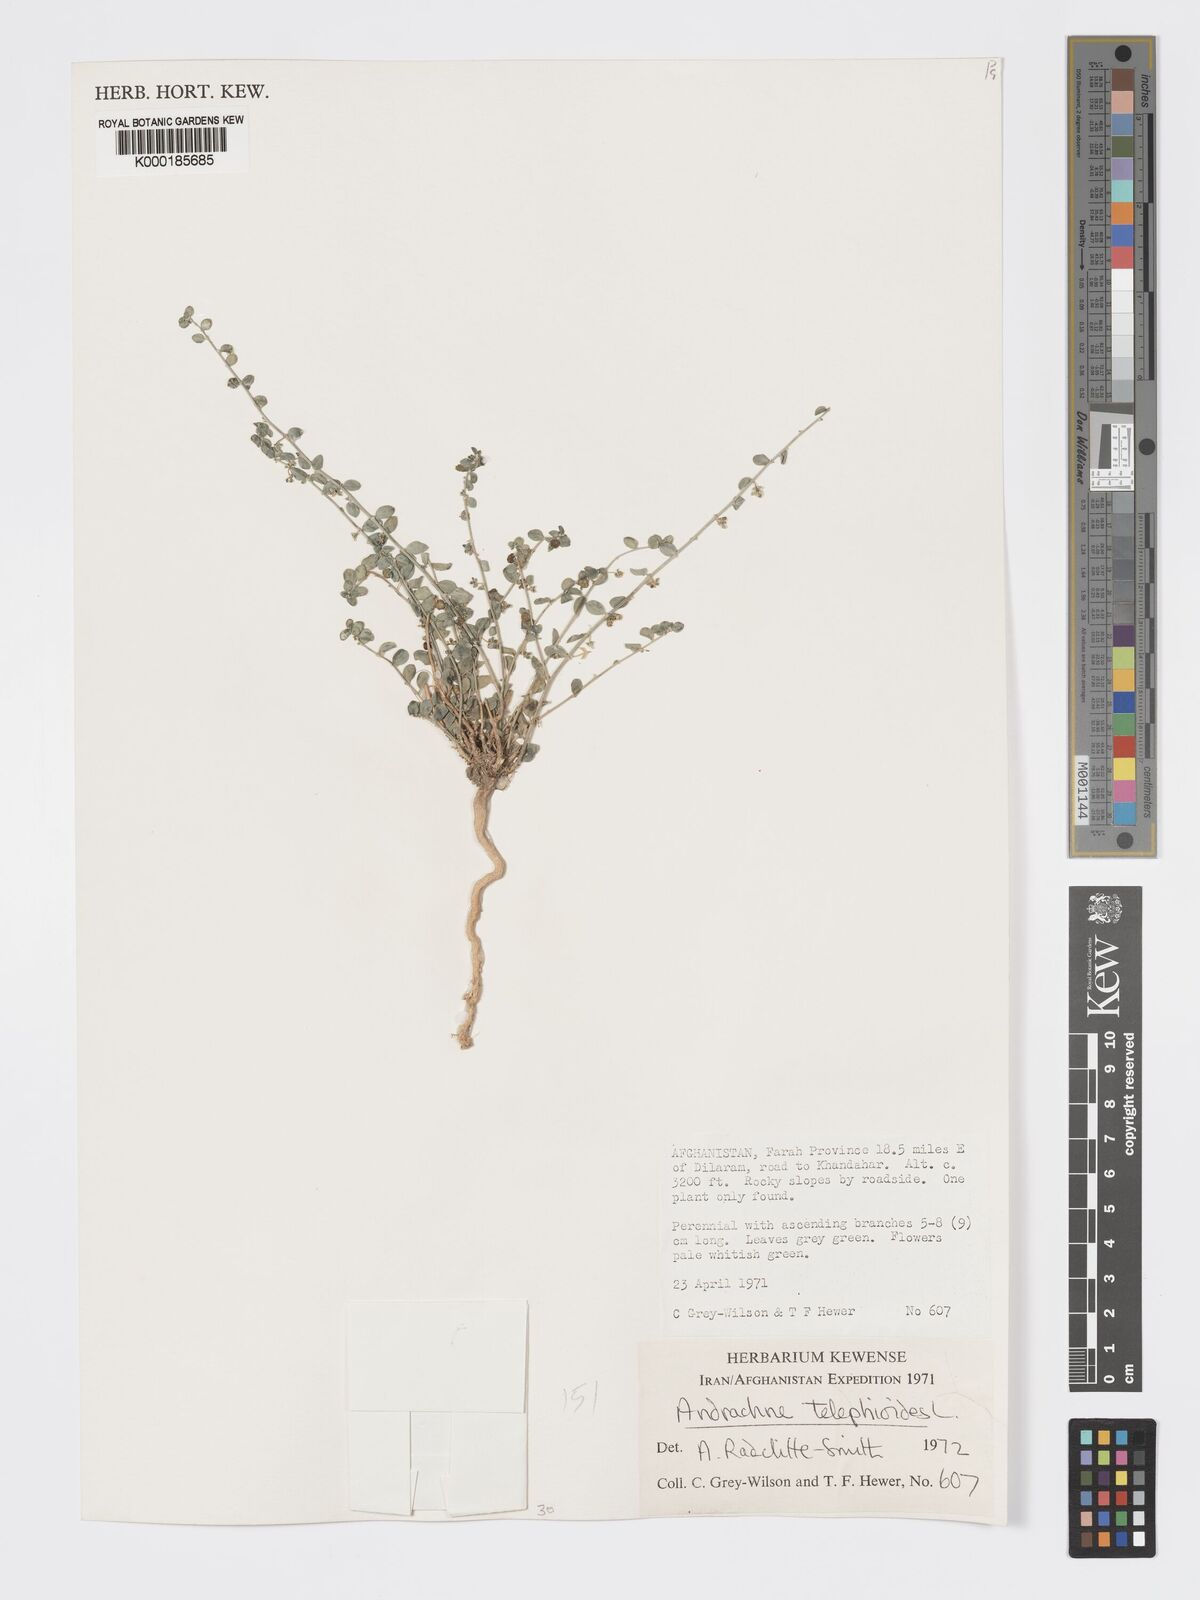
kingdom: Plantae
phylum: Tracheophyta
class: Magnoliopsida
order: Malpighiales
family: Phyllanthaceae
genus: Andrachne
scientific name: Andrachne telephioides
